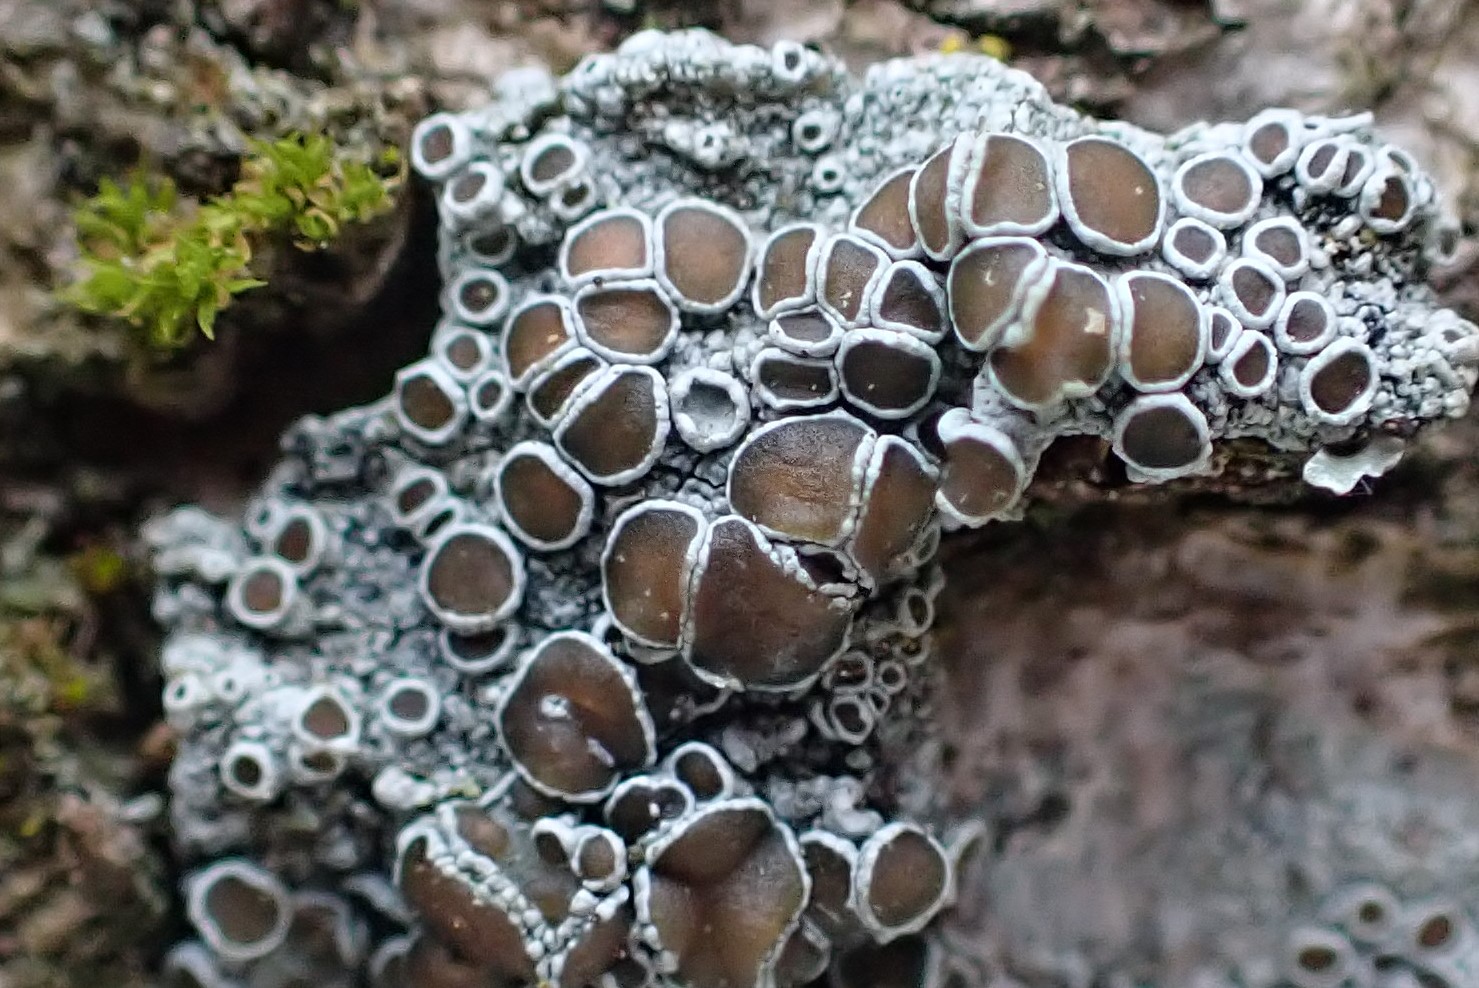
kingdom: Fungi
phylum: Ascomycota
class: Lecanoromycetes
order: Lecanorales
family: Lecanoraceae
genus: Lecanora
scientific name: Lecanora argentata
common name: sølv-kantskivelav
